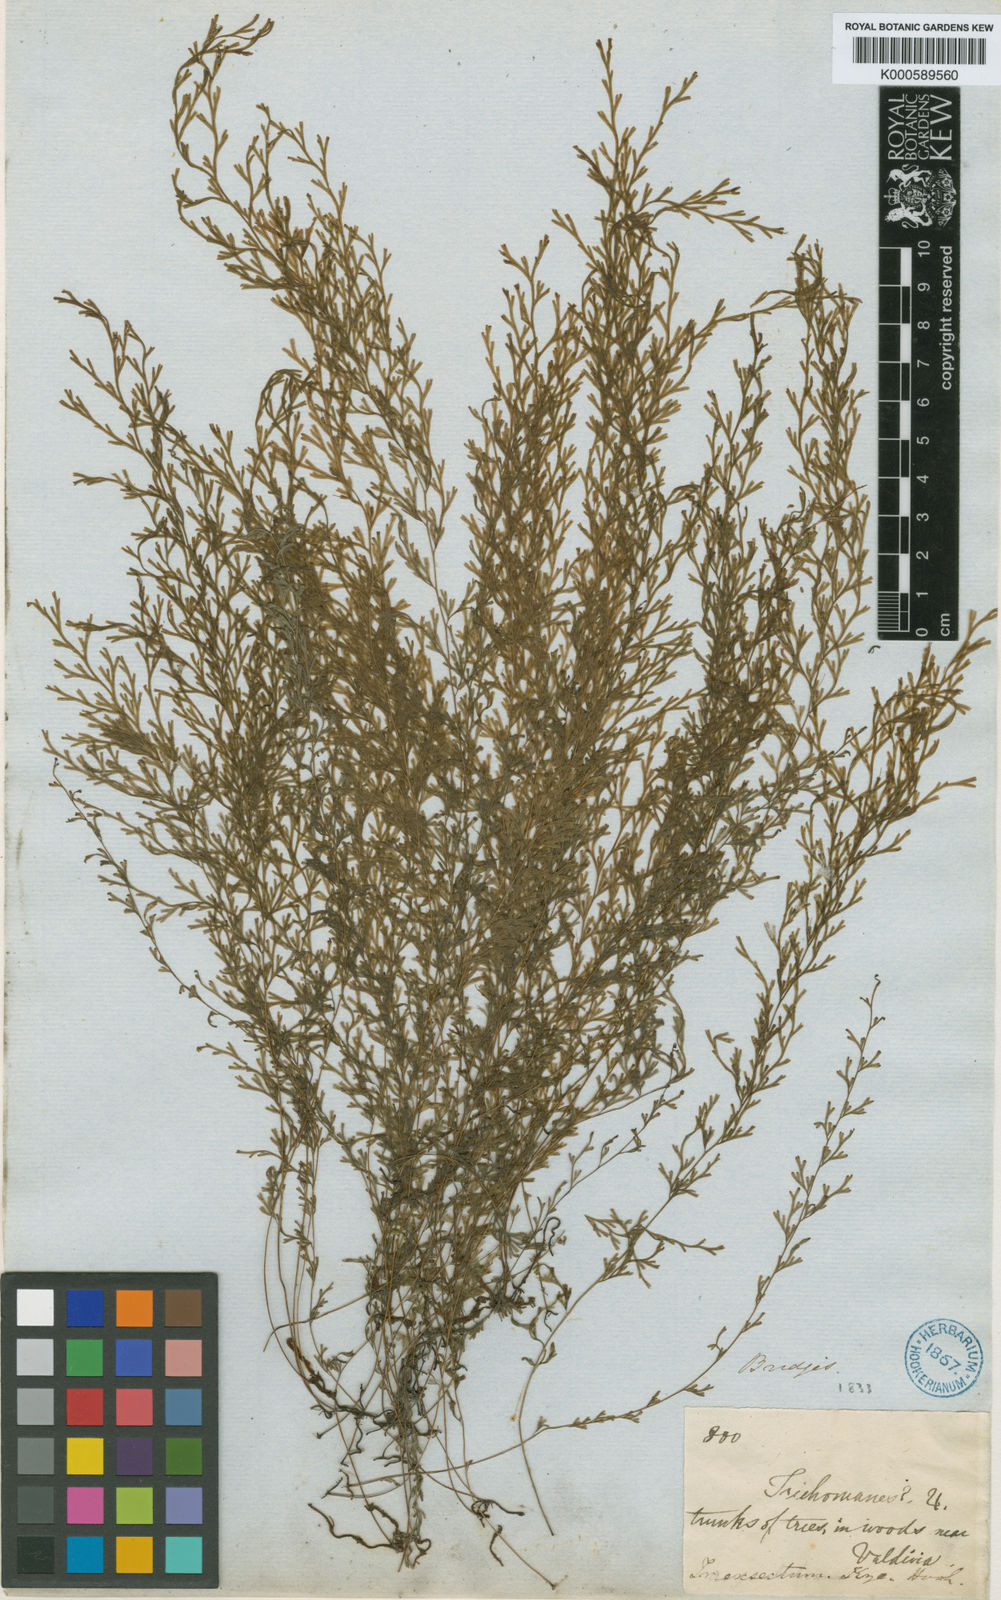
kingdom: Plantae
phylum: Tracheophyta
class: Polypodiopsida
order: Hymenophyllales
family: Hymenophyllaceae
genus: Polyphlebium
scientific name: Polyphlebium exsectum
